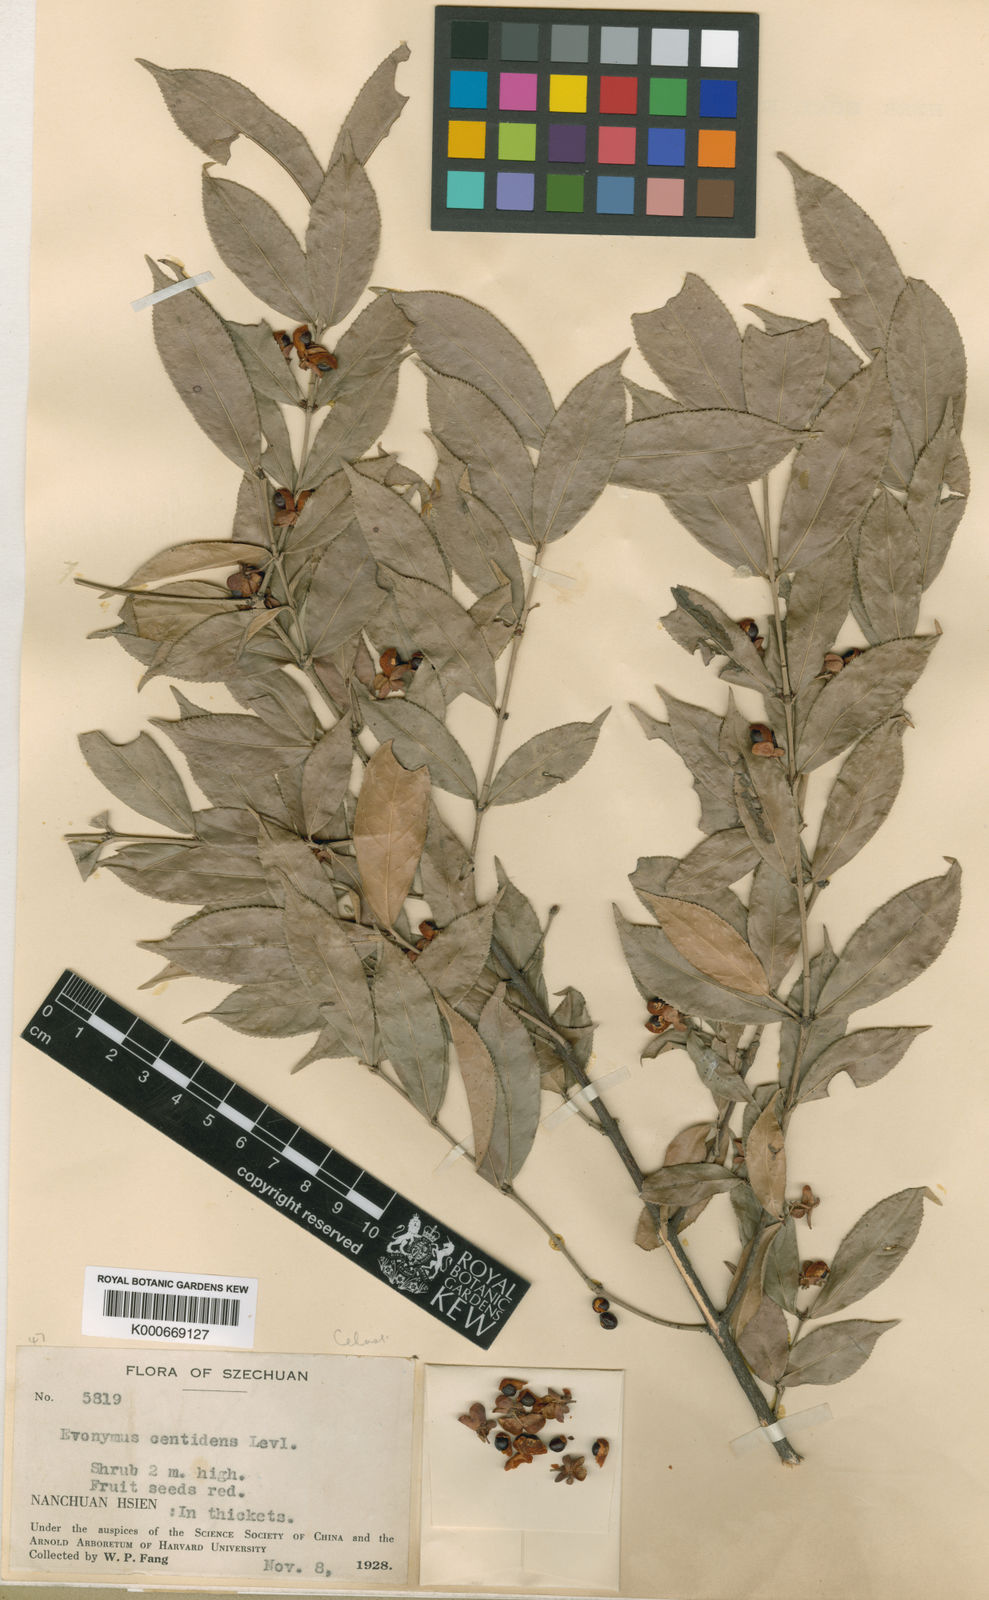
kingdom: Plantae
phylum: Tracheophyta
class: Magnoliopsida
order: Celastrales
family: Celastraceae
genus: Euonymus
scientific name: Euonymus
